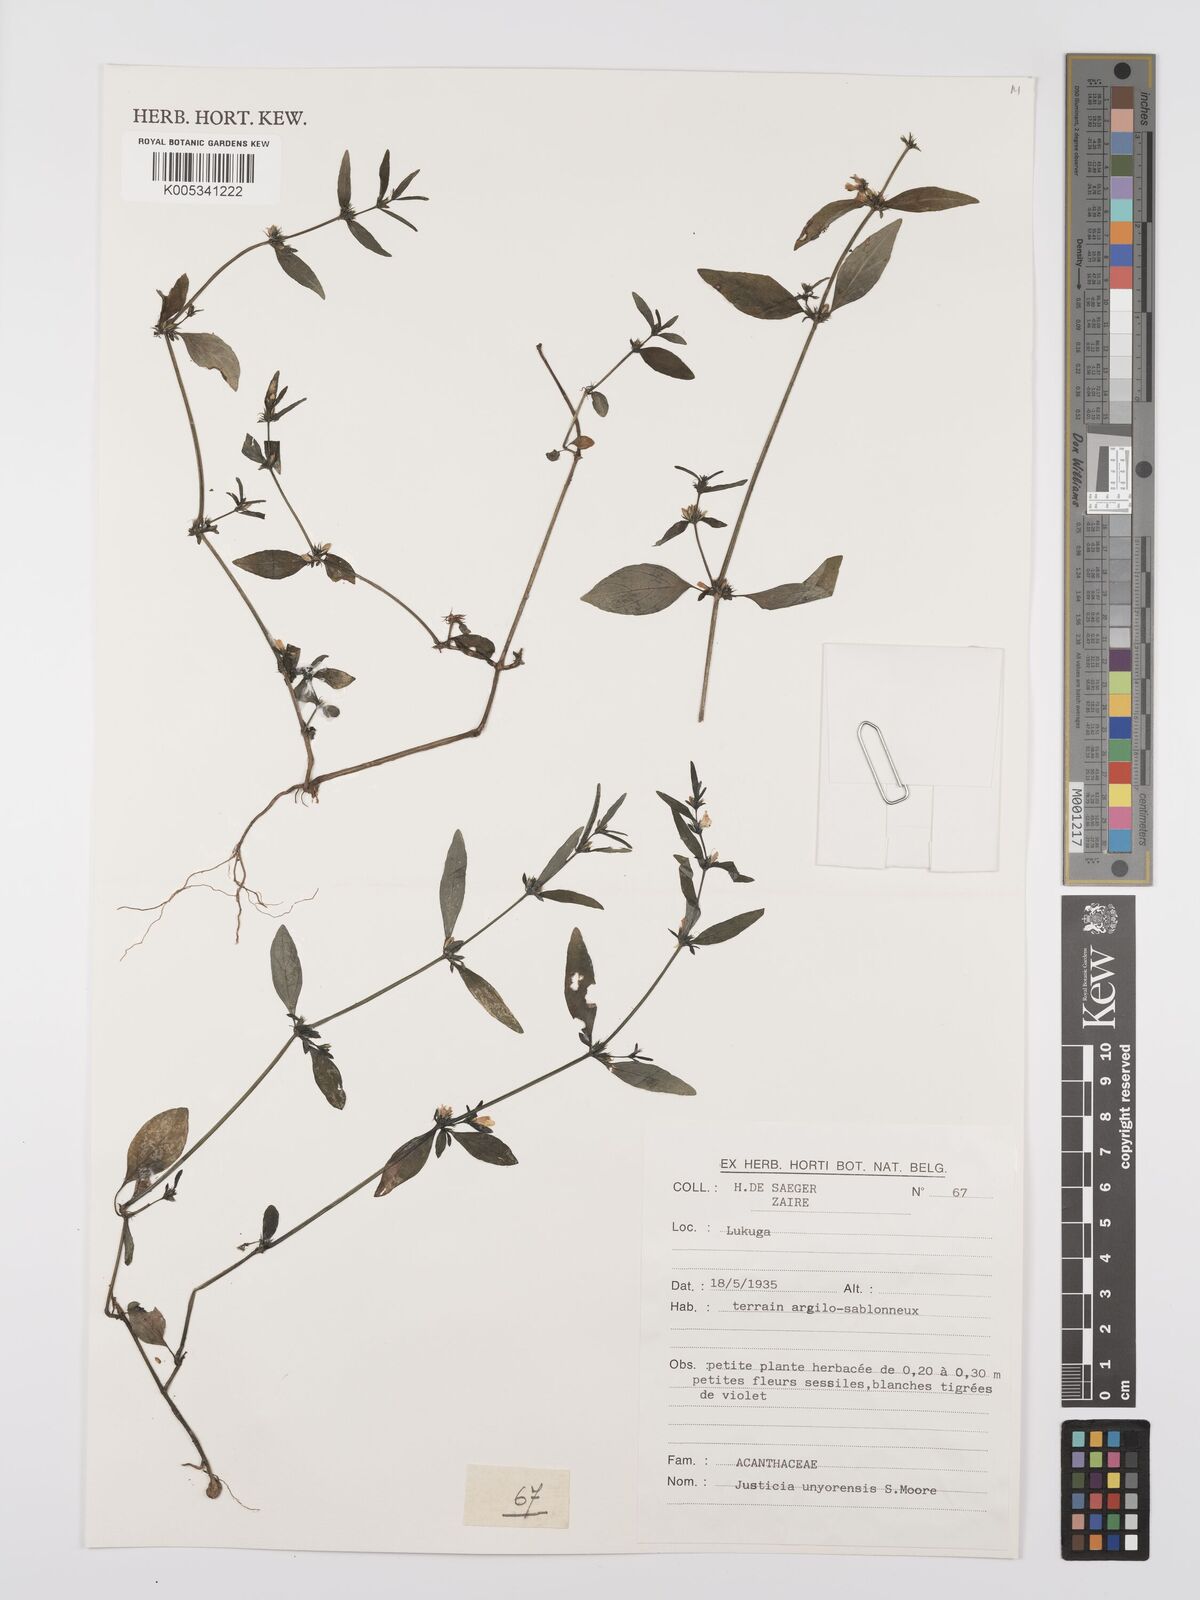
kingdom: Plantae
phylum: Tracheophyta
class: Magnoliopsida
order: Lamiales
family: Acanthaceae
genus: Justicia
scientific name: Justicia unyorensis
